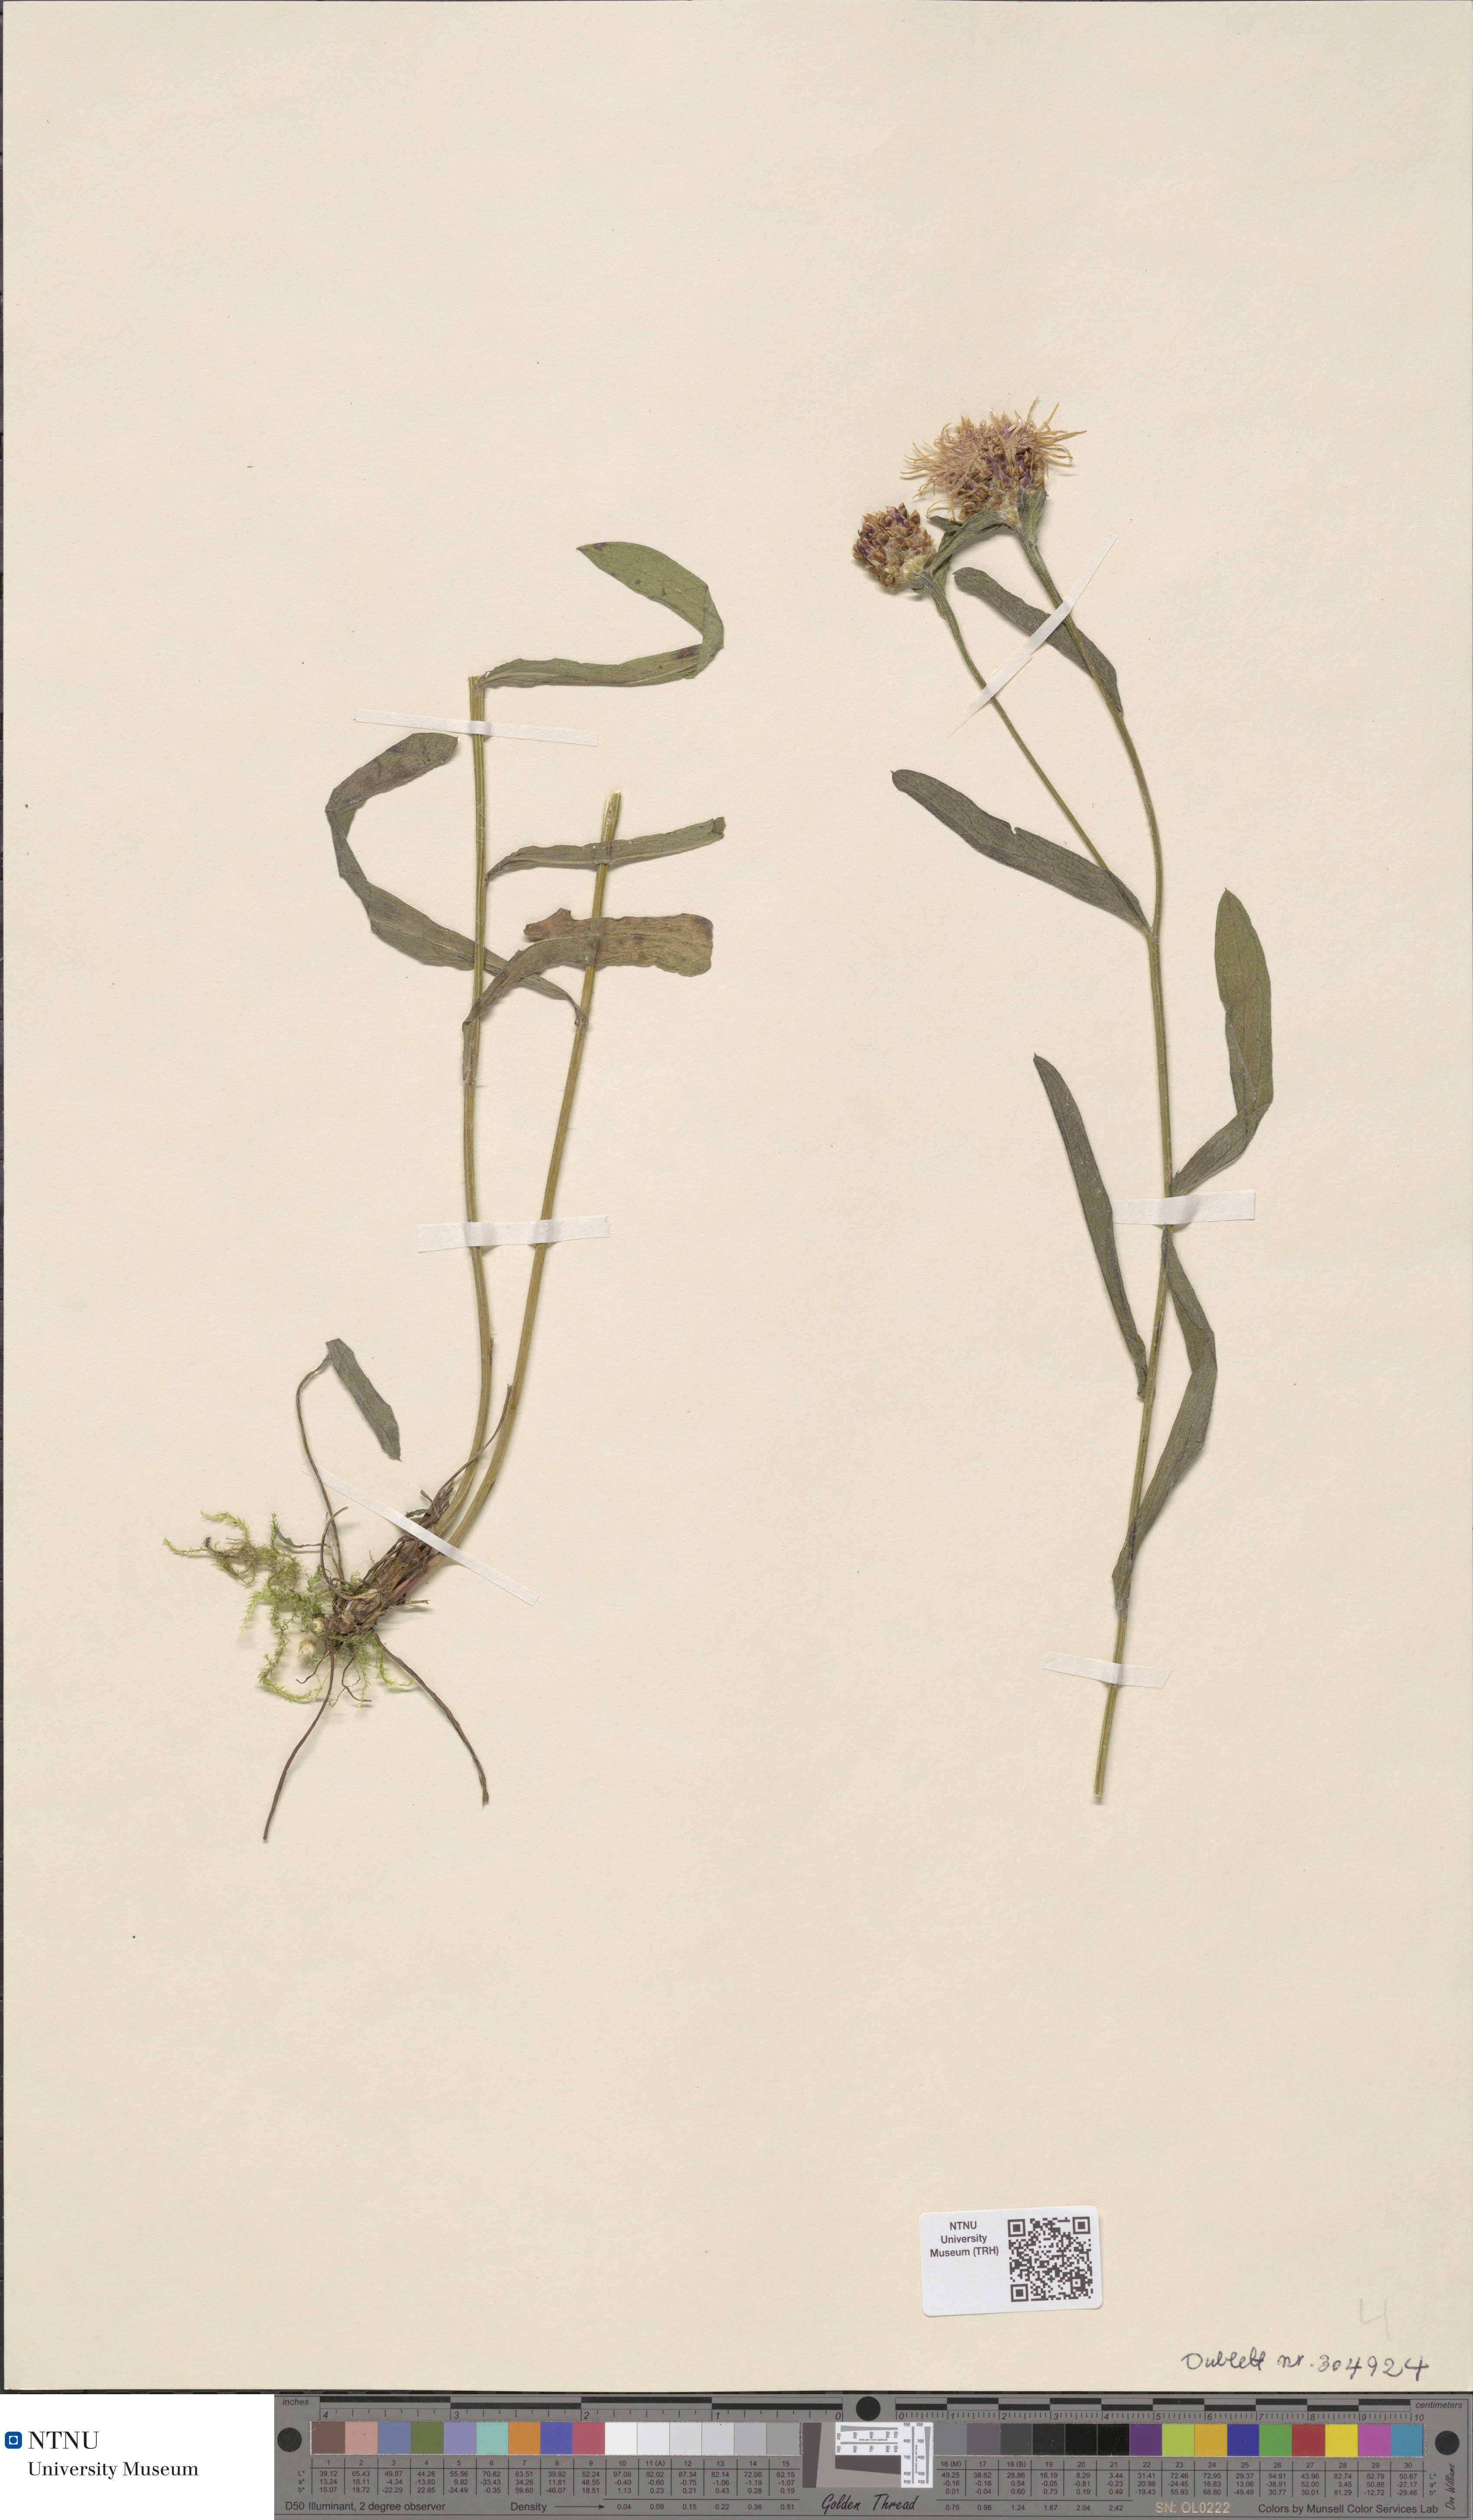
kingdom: Plantae
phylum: Tracheophyta
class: Magnoliopsida
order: Asterales
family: Asteraceae
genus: Centaurea
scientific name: Centaurea jacea
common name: Brown knapweed
